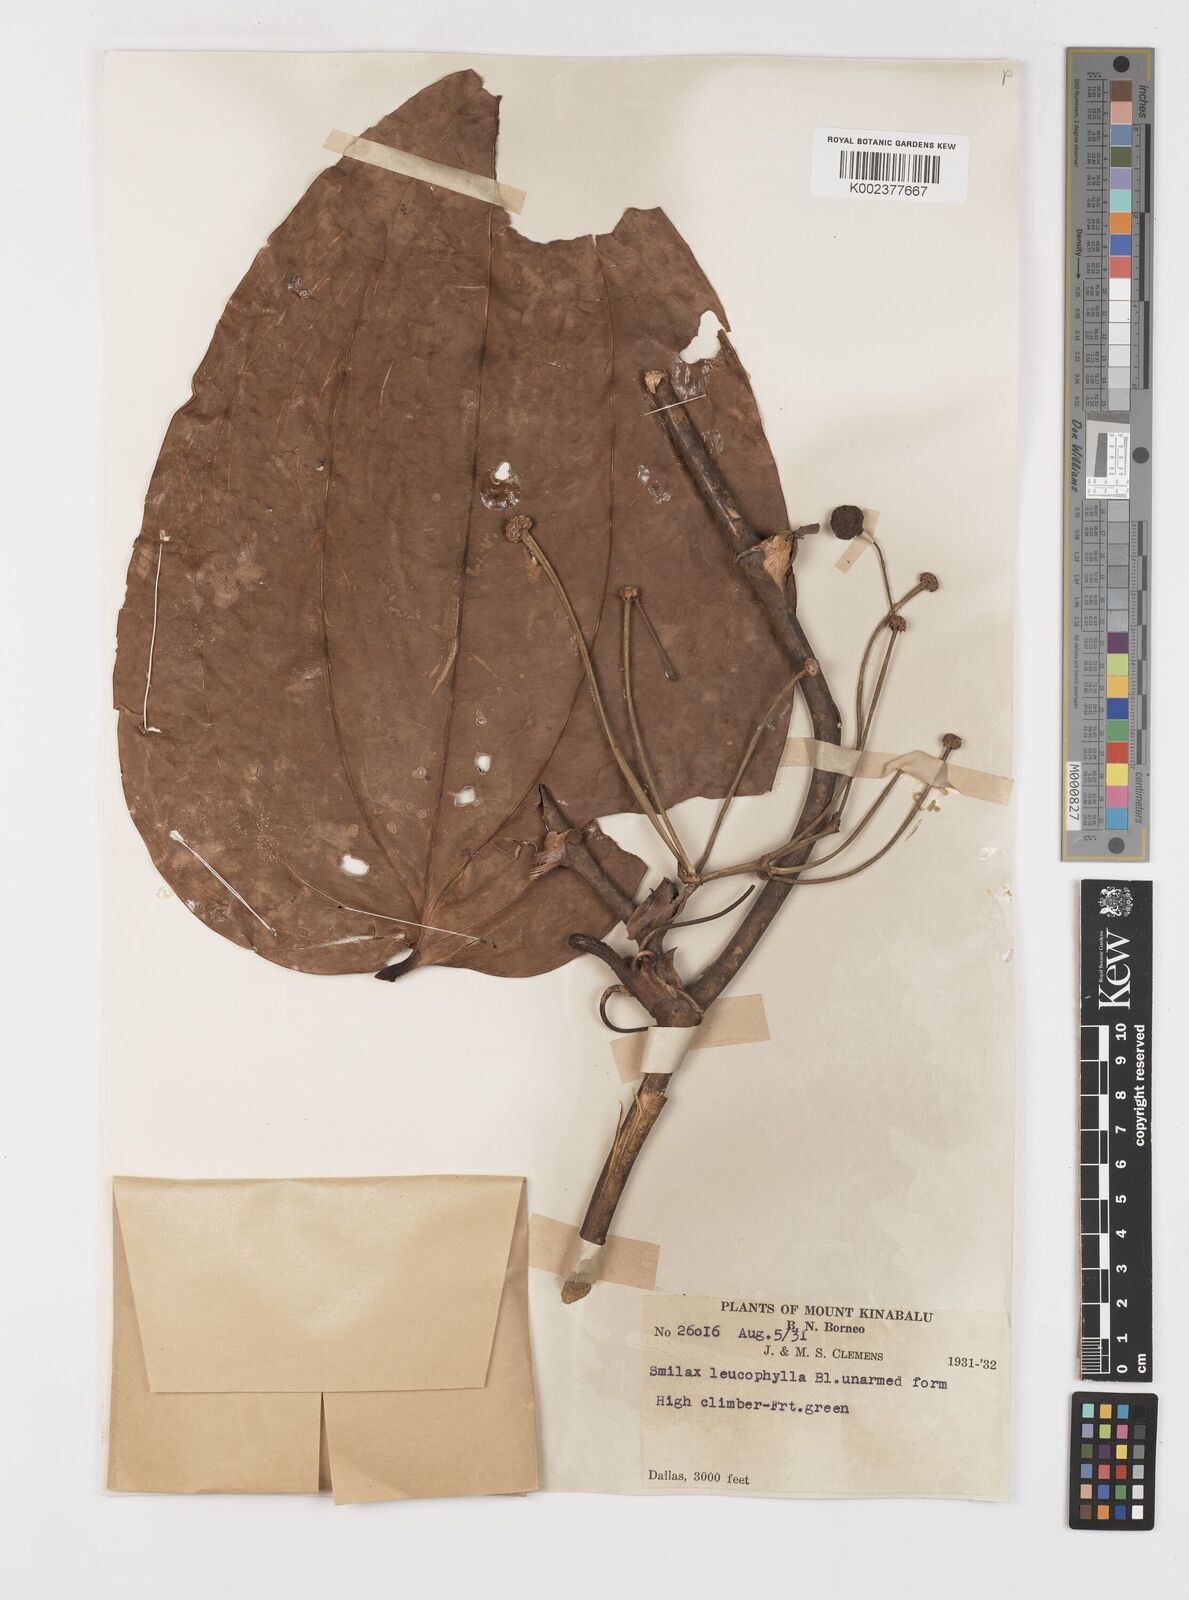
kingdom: Plantae
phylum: Tracheophyta
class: Liliopsida
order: Liliales
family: Smilacaceae
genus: Smilax
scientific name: Smilax leucophylla
